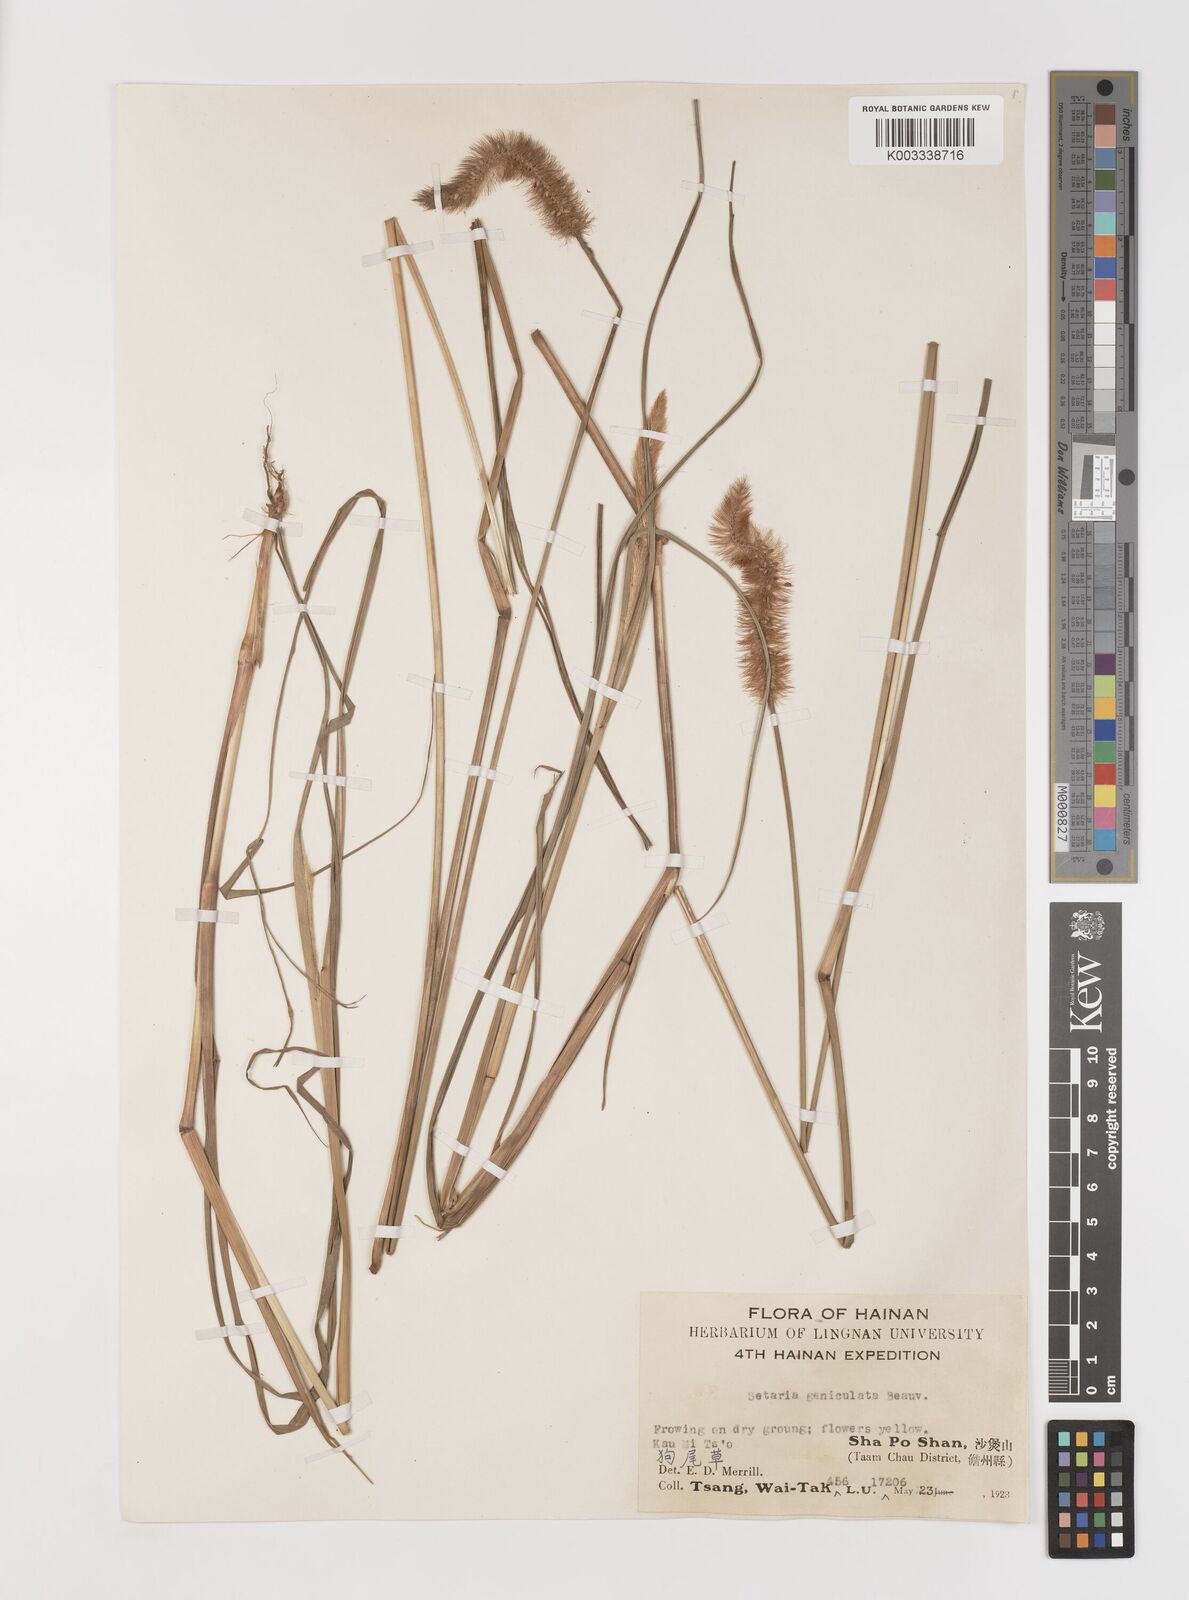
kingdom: Plantae
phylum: Tracheophyta
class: Liliopsida
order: Poales
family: Poaceae
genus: Setaria
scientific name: Setaria parviflora
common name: Knotroot bristle-grass
